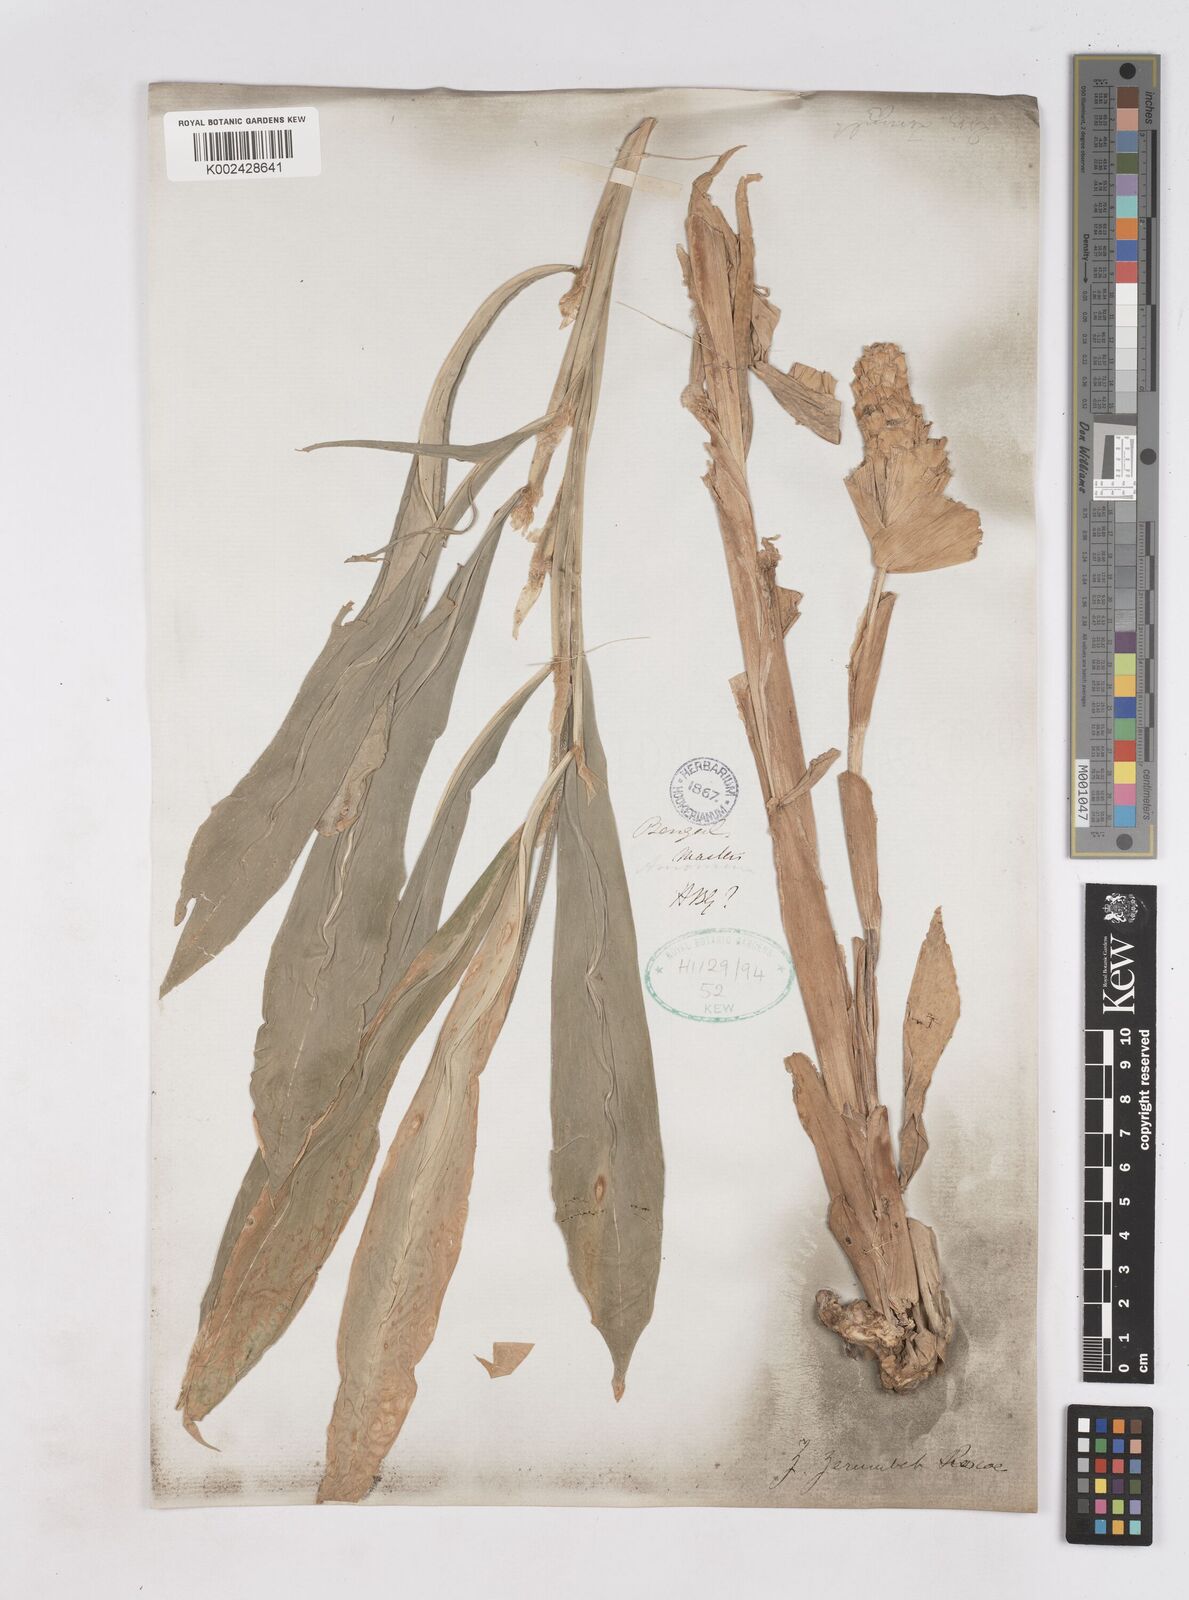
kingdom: Plantae
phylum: Tracheophyta
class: Liliopsida
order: Zingiberales
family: Zingiberaceae
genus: Zingiber
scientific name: Zingiber zerumbet
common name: Bitter ginger
